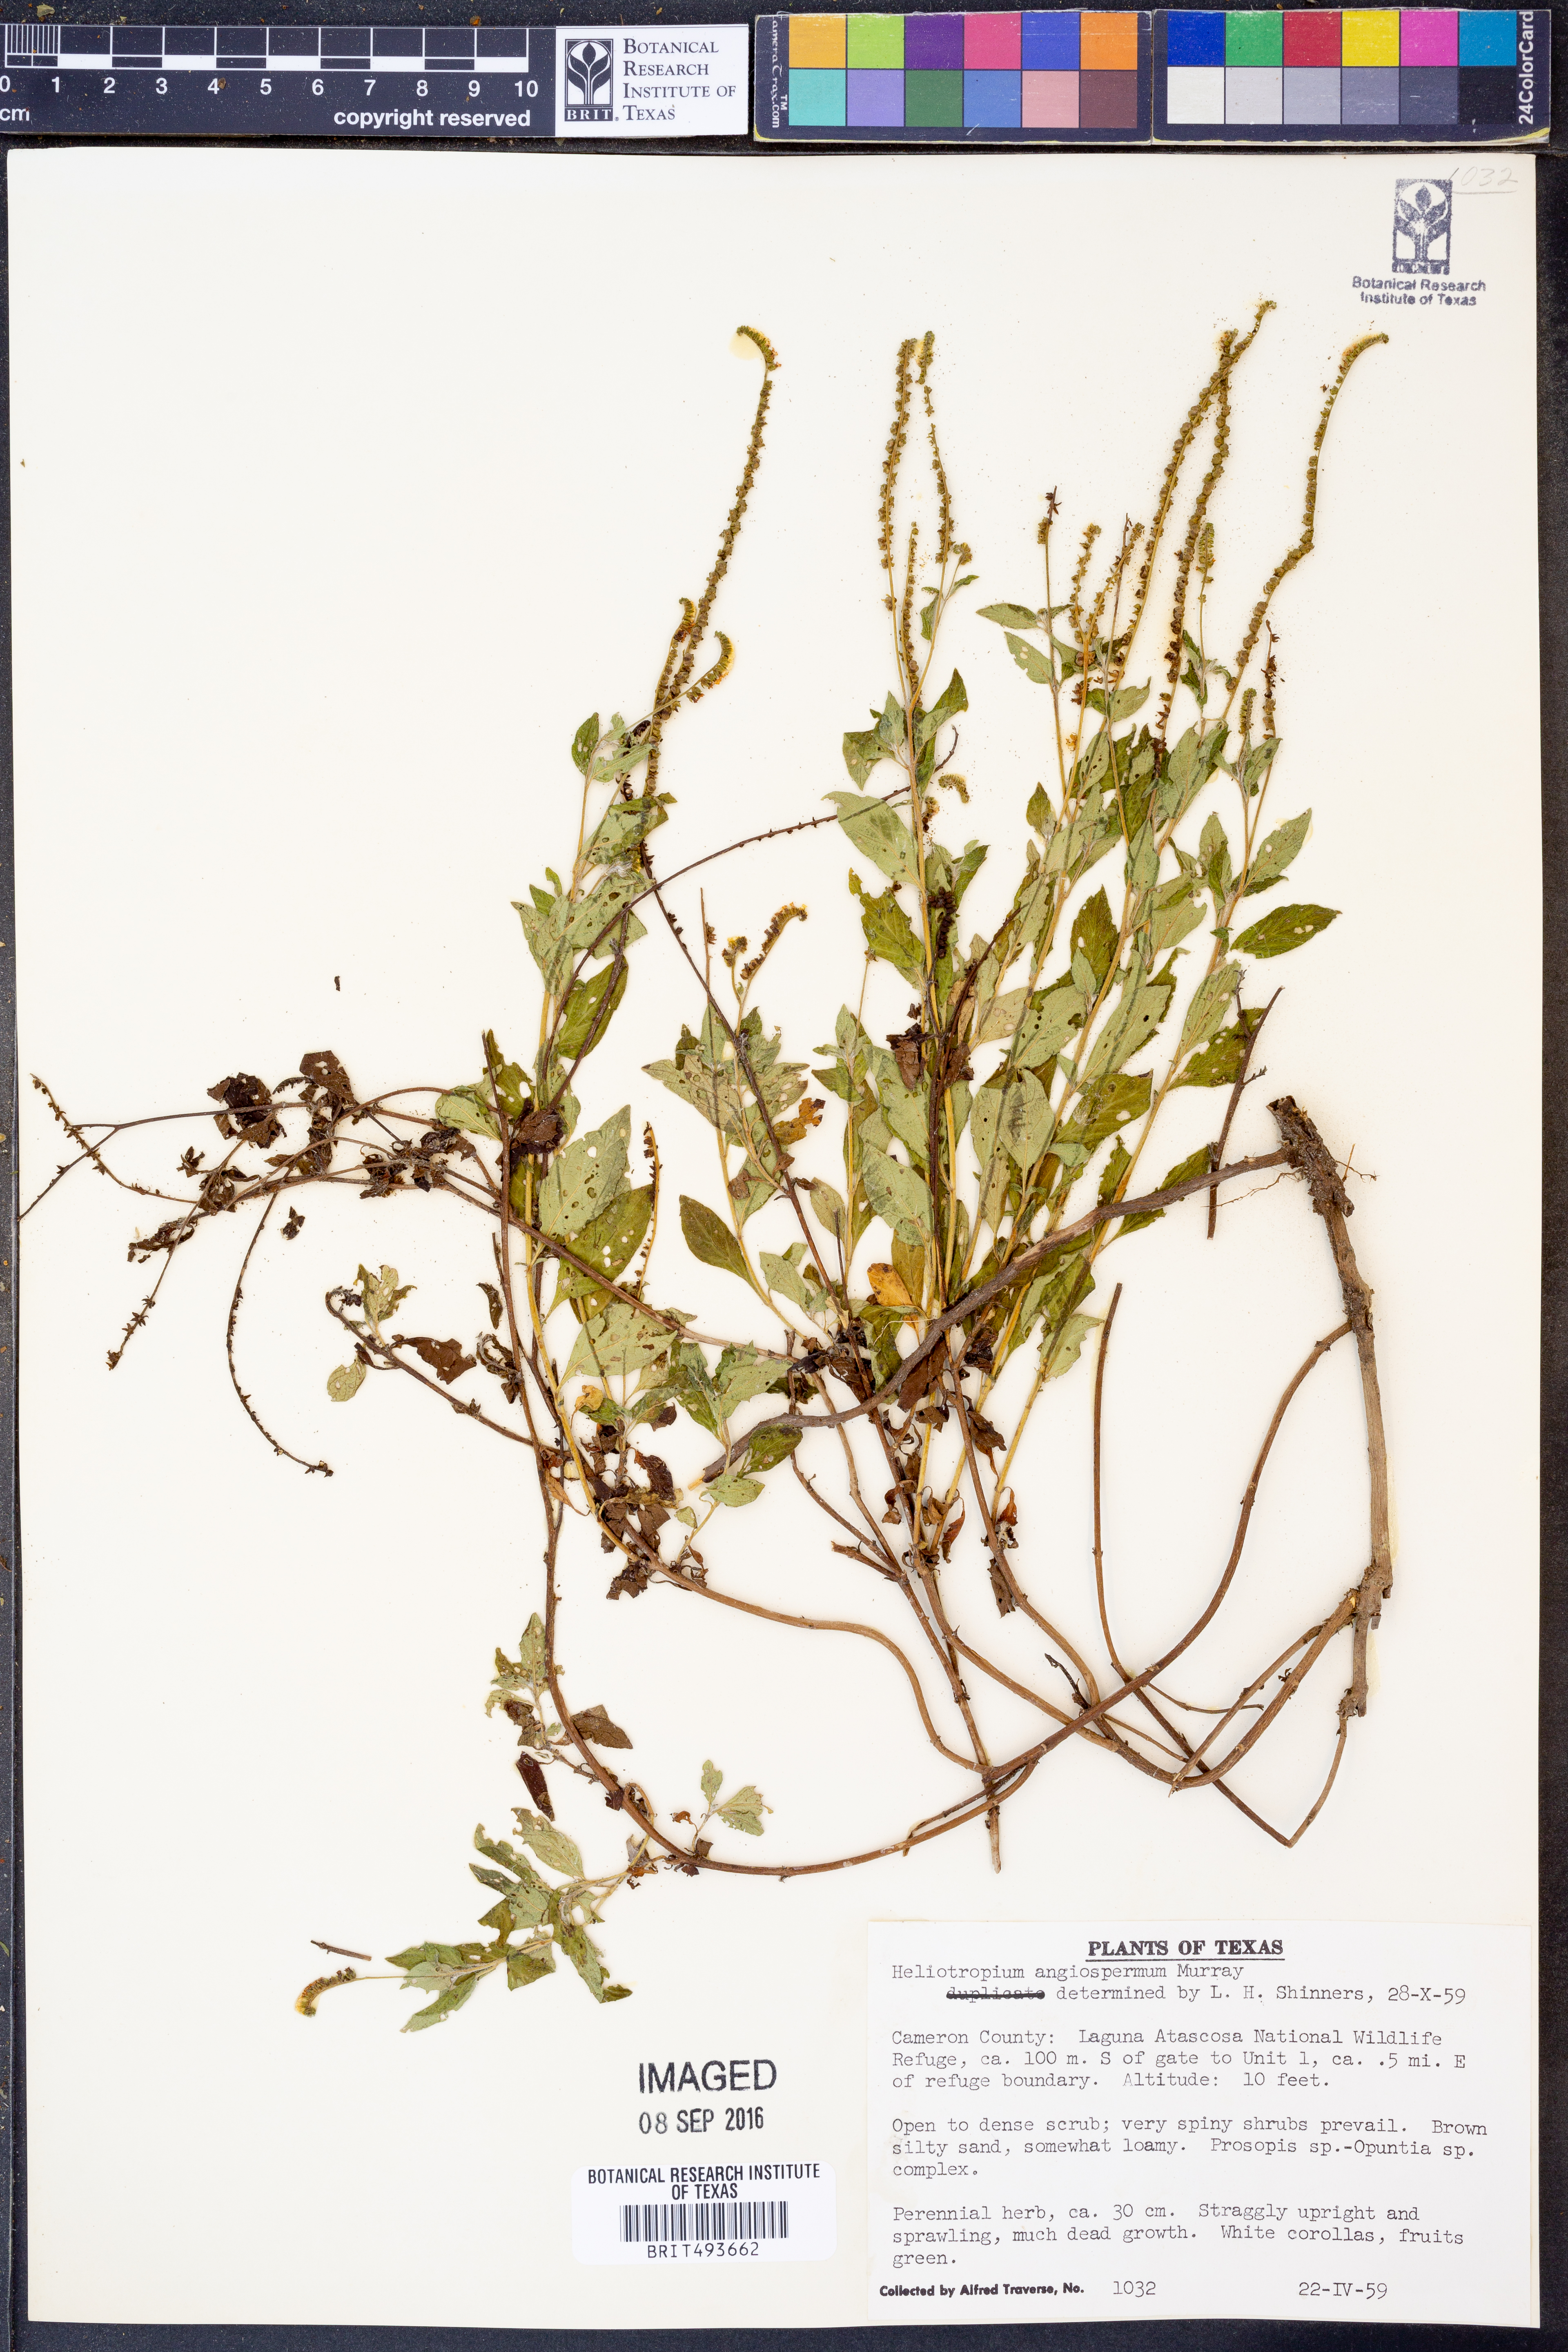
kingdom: Plantae
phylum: Tracheophyta
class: Magnoliopsida
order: Boraginales
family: Heliotropiaceae
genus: Heliotropium
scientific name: Heliotropium angiospermum
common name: Eye bright
